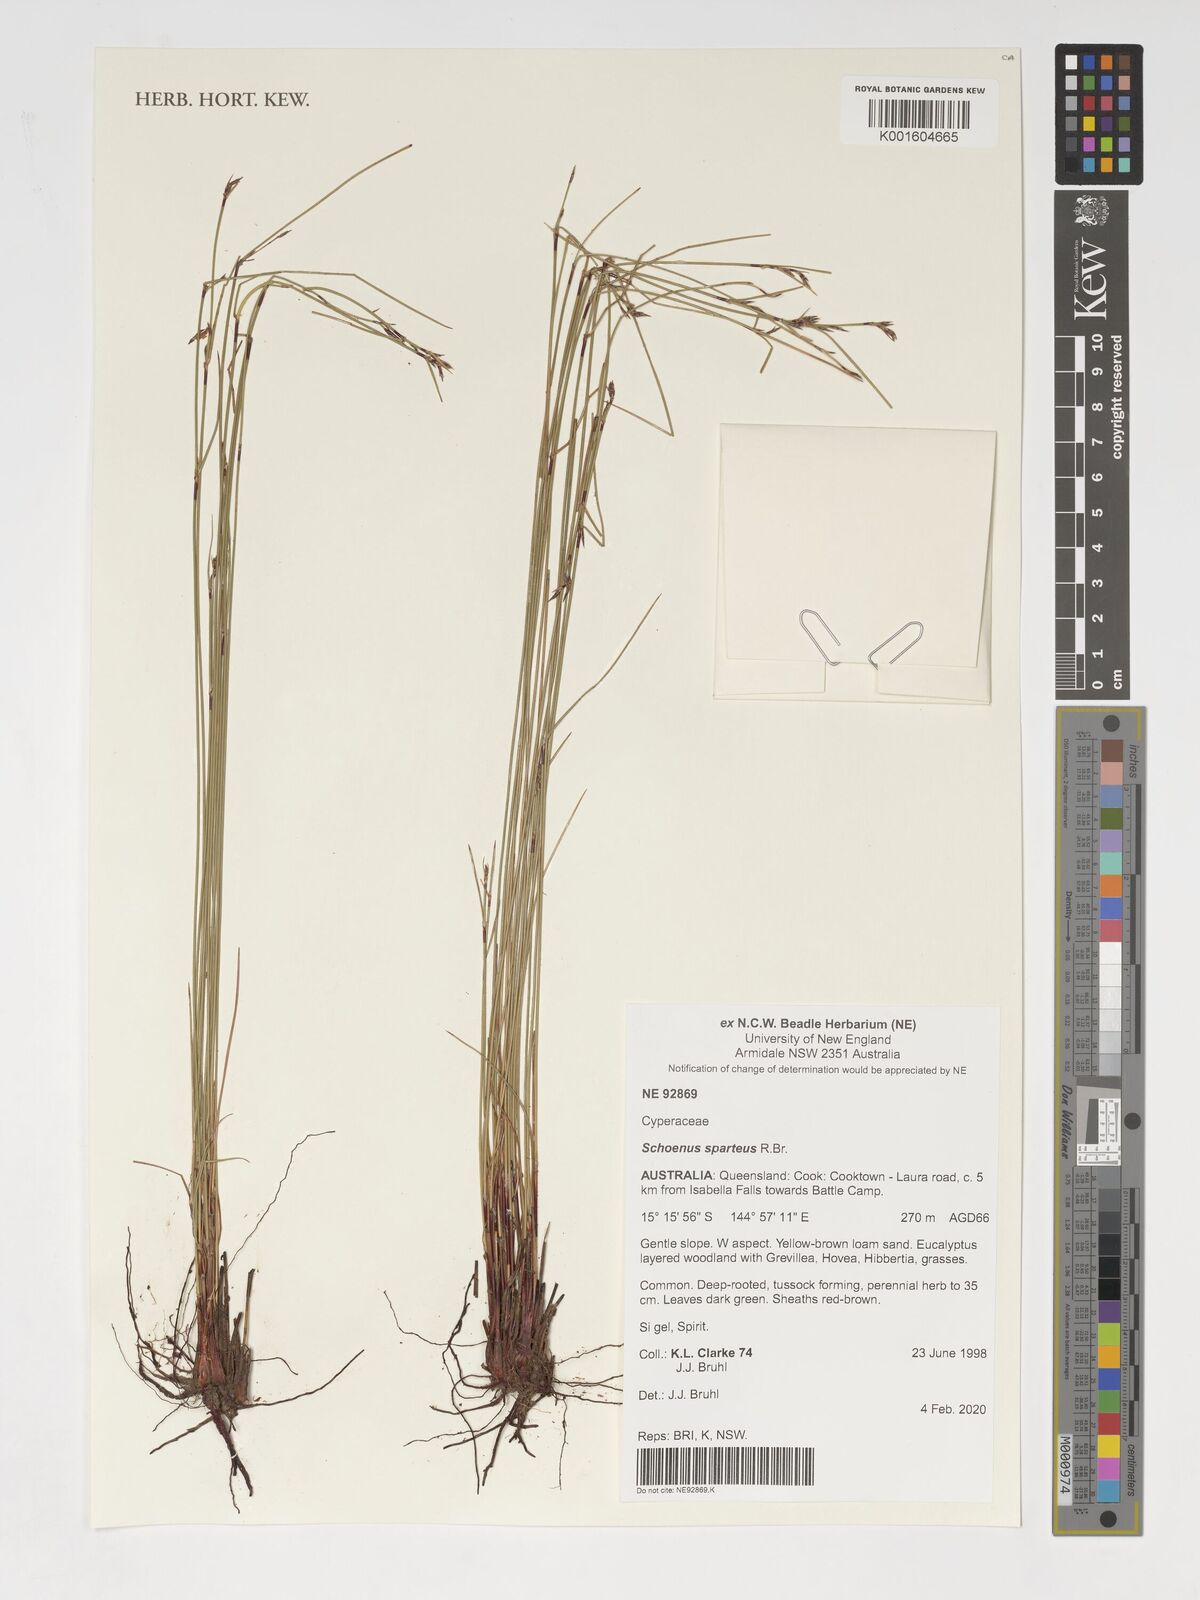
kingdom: Plantae
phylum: Tracheophyta
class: Liliopsida
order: Poales
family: Cyperaceae
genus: Schoenus
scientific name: Schoenus sparteus
